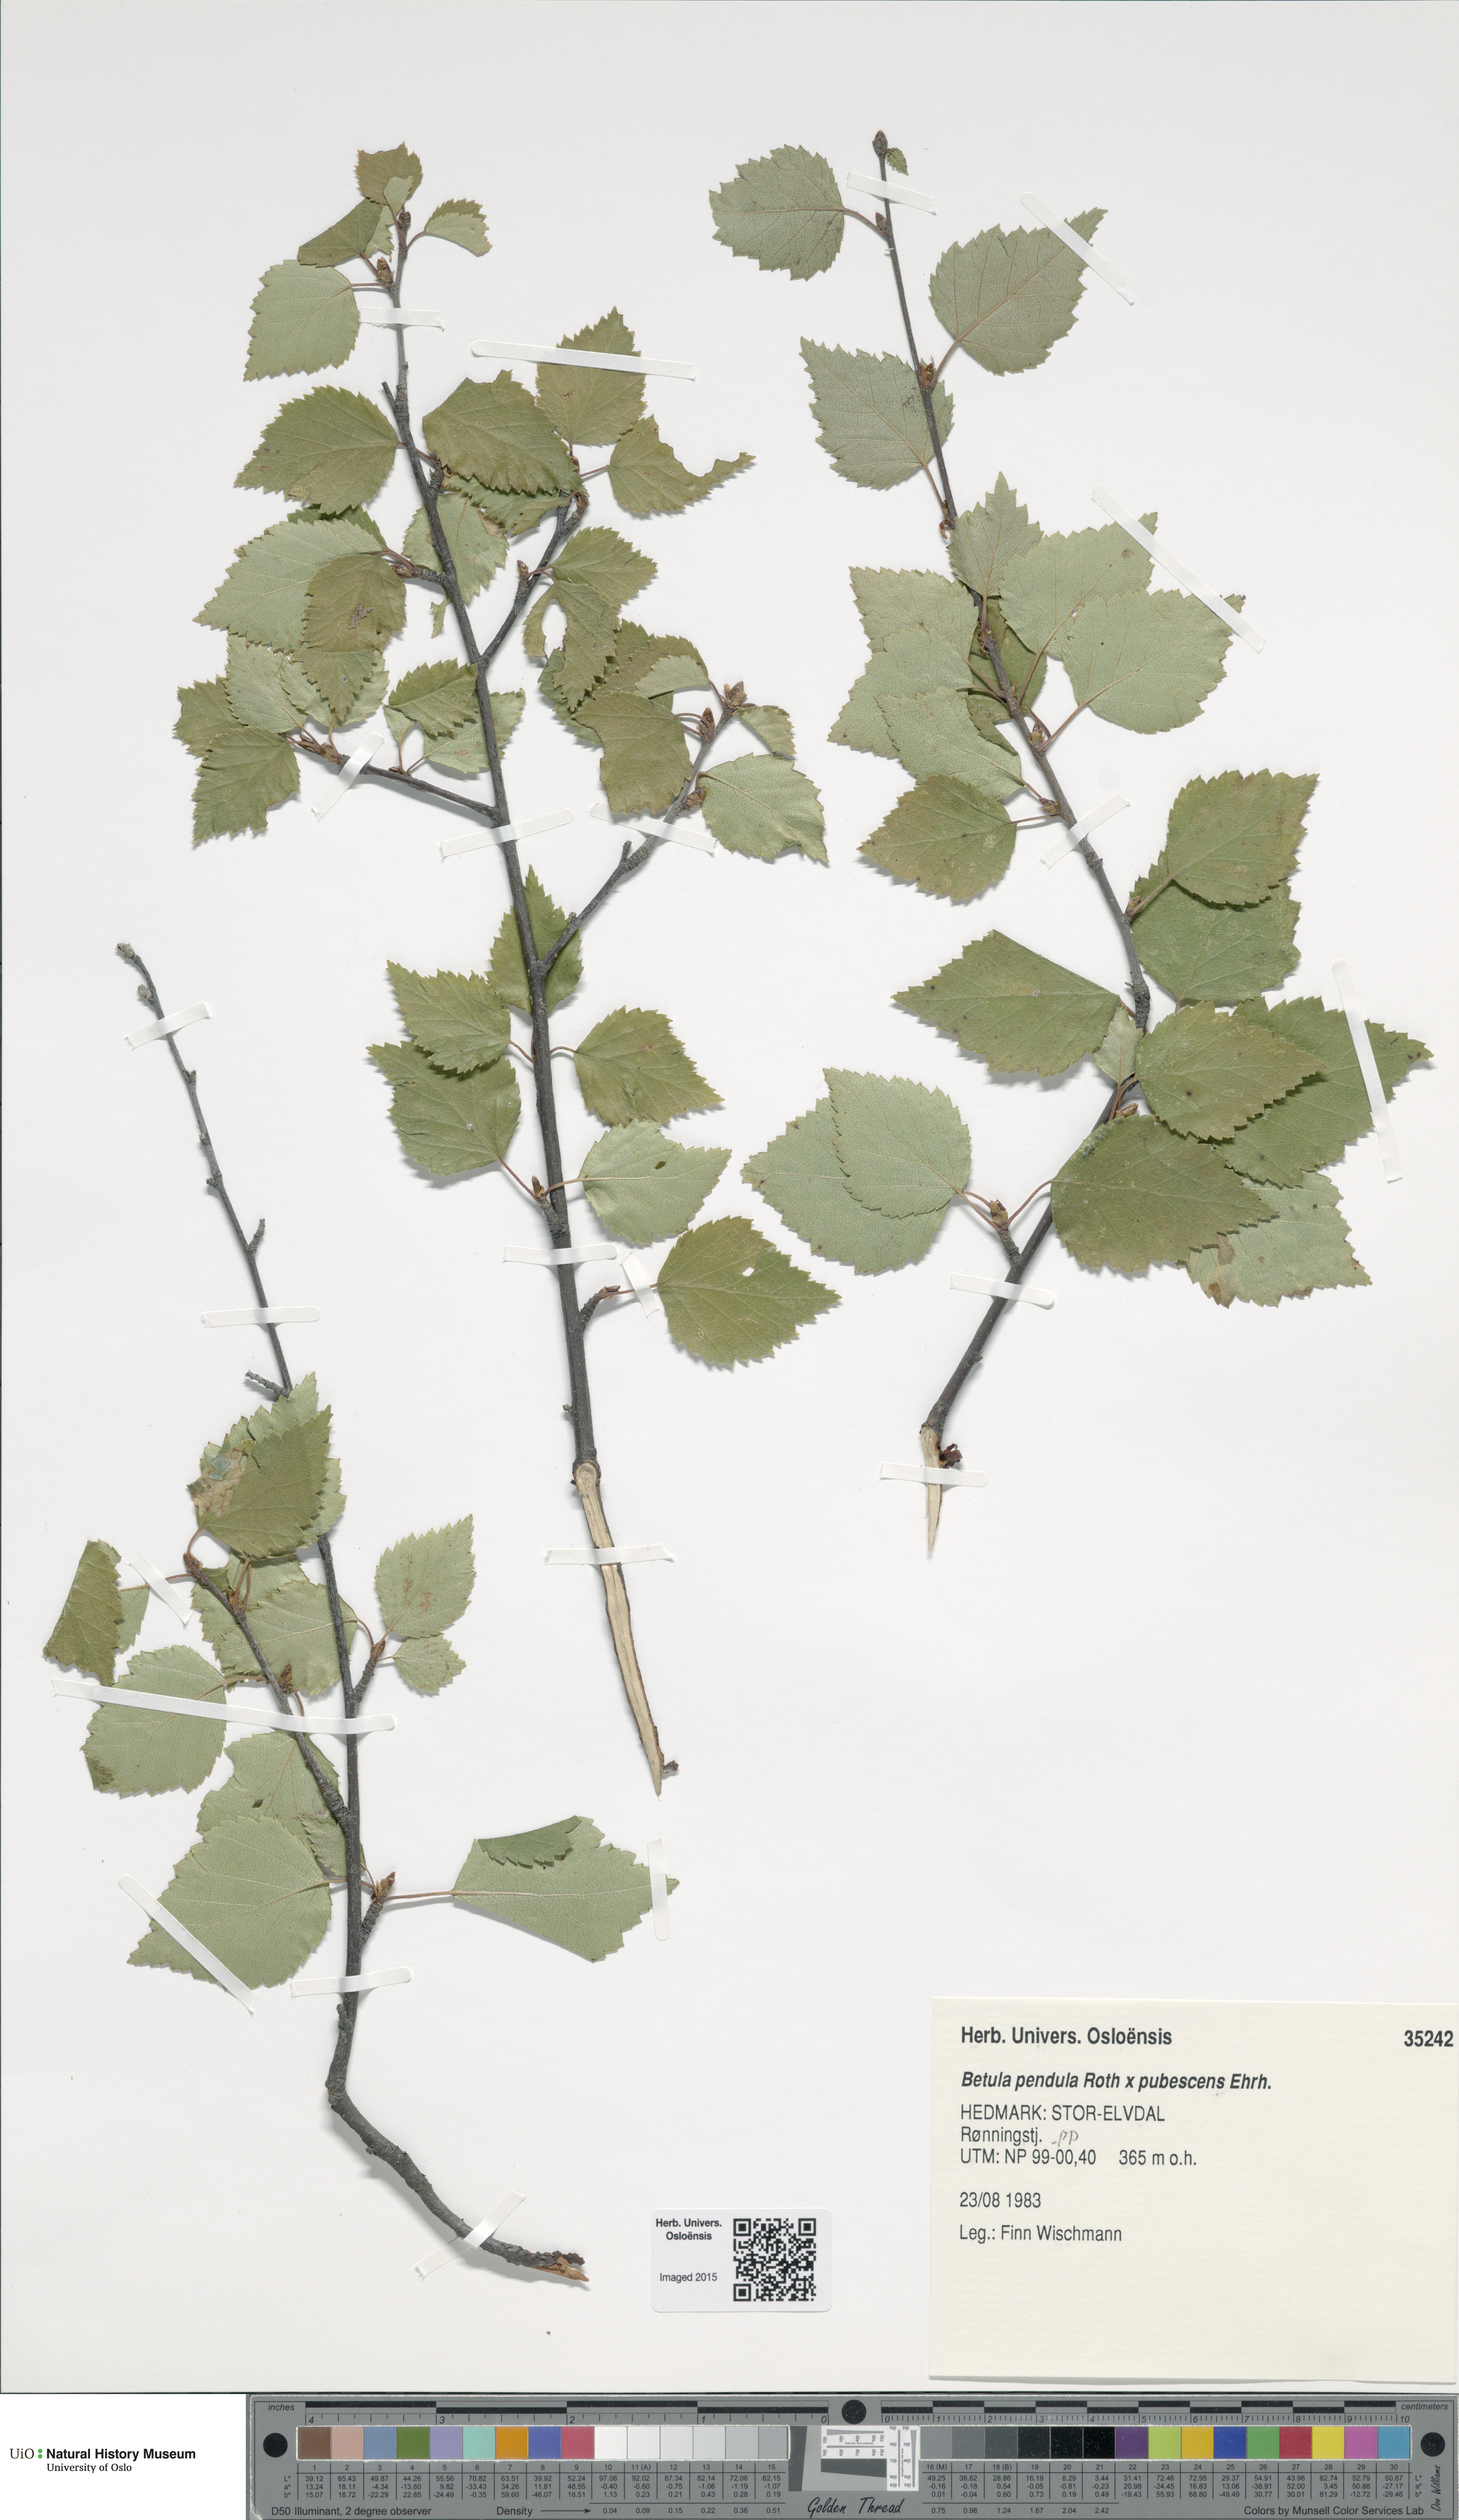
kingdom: Plantae
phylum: Tracheophyta
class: Magnoliopsida
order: Fagales
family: Betulaceae
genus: Betula
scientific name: Betula
